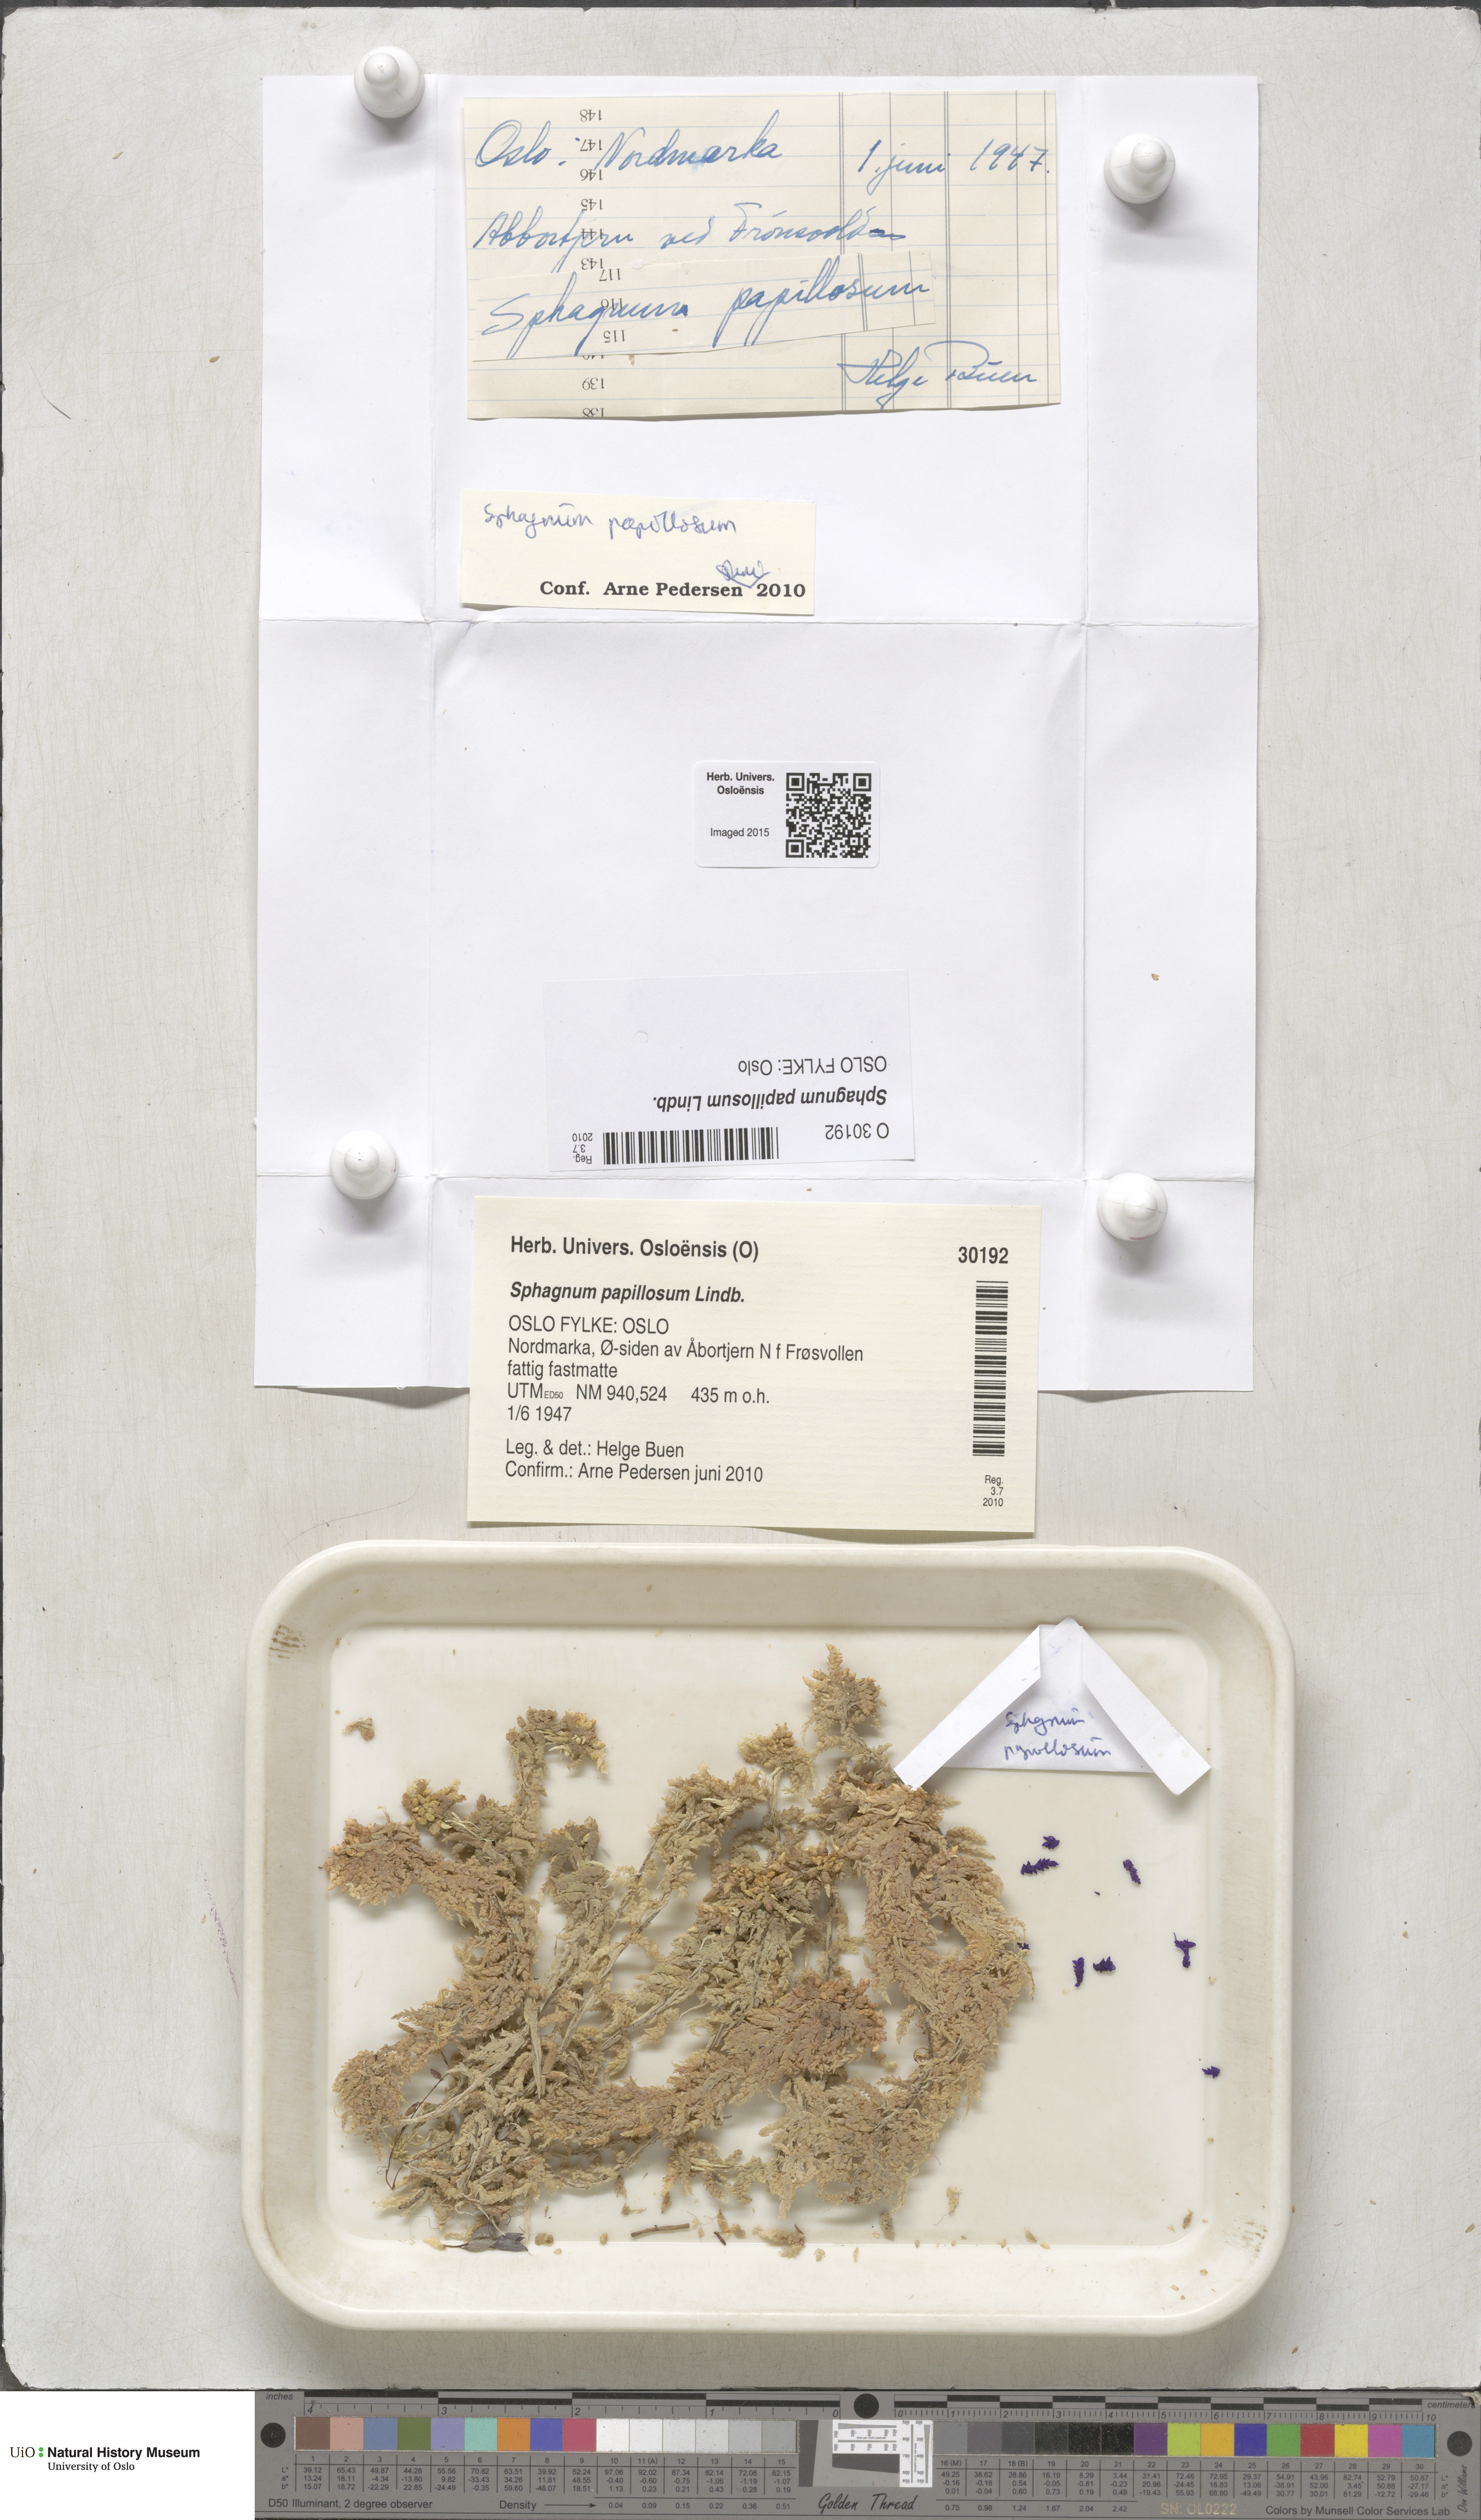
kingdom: Plantae
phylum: Bryophyta
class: Sphagnopsida
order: Sphagnales
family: Sphagnaceae
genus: Sphagnum
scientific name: Sphagnum papillosum
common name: Papillose peat moss
